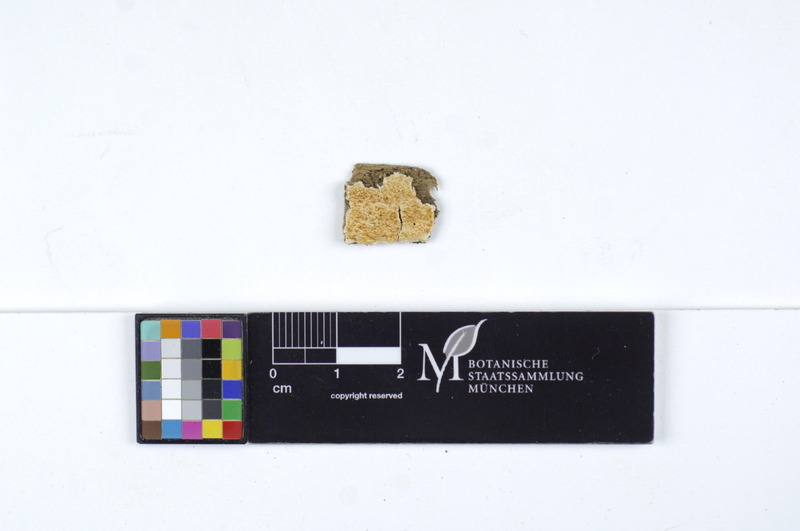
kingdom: Fungi
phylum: Basidiomycota
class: Agaricomycetes
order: Polyporales
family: Irpicaceae
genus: Byssomerulius
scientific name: Byssomerulius albostramineus
